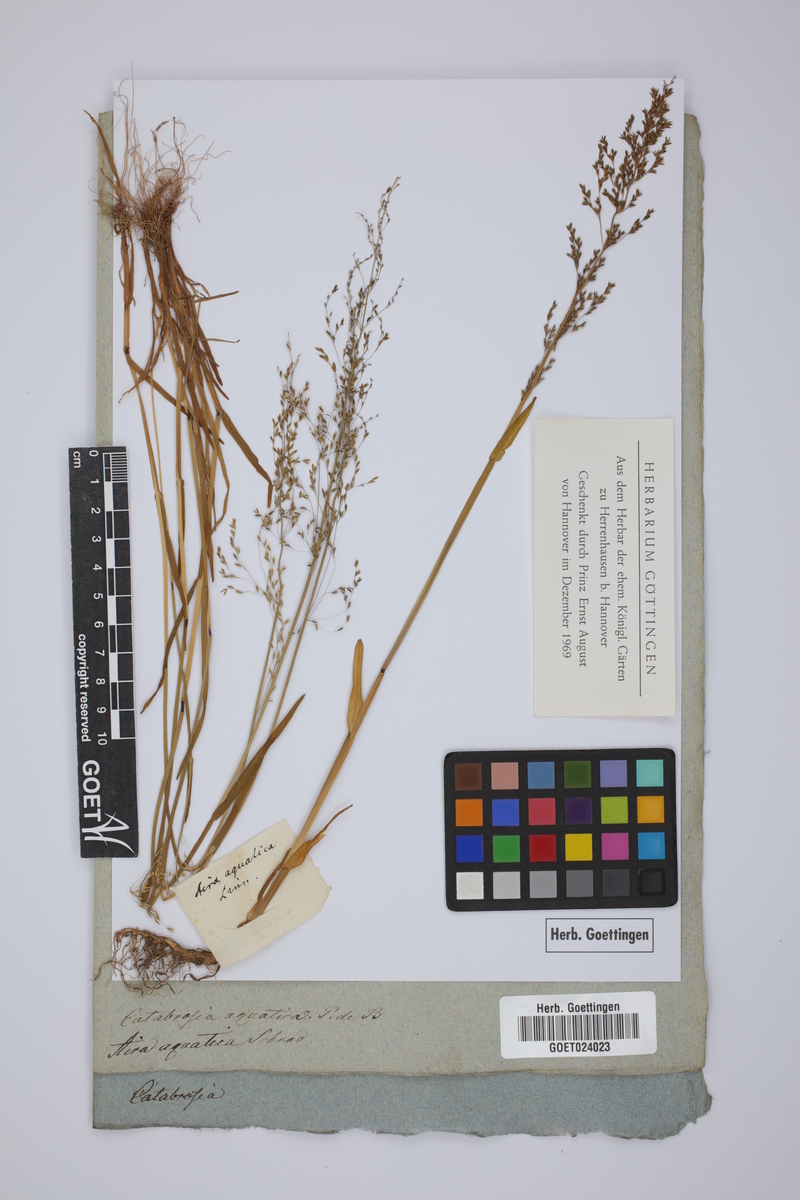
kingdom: Plantae
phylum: Tracheophyta
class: Liliopsida
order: Poales
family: Poaceae
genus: Catabrosa
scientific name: Catabrosa aquatica
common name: Whorl-grass
